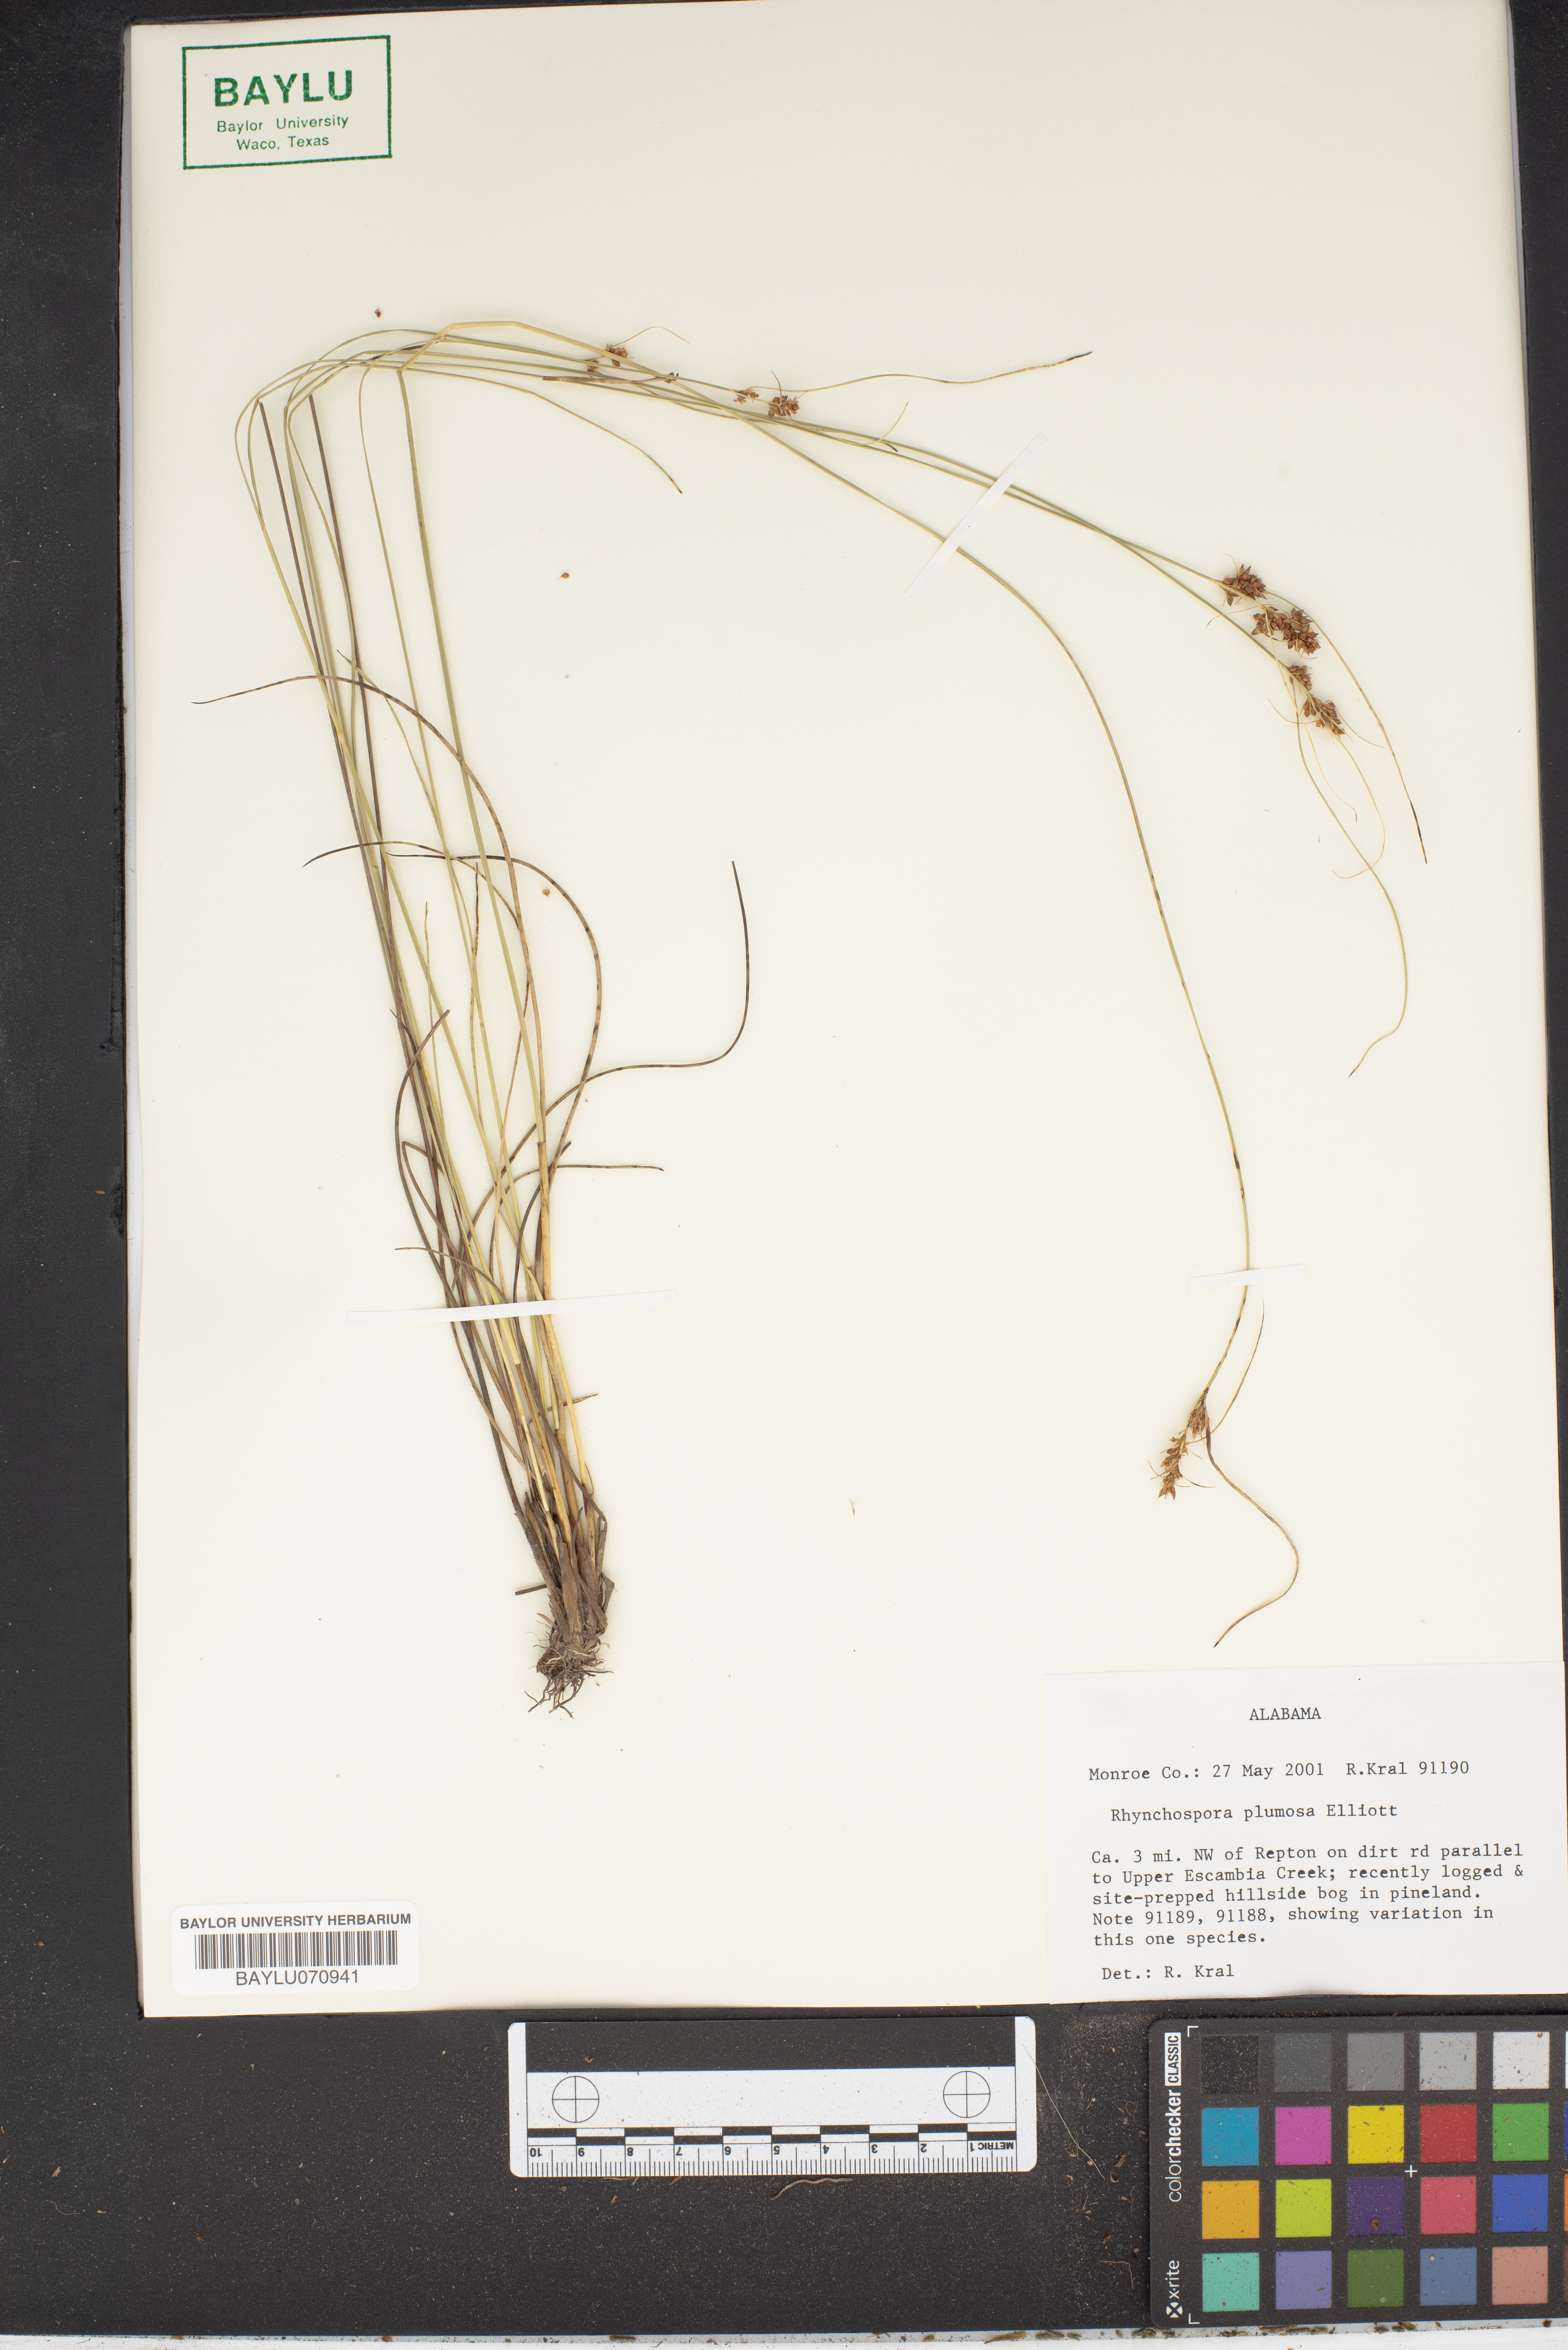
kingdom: Plantae
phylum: Tracheophyta
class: Liliopsida
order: Poales
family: Cyperaceae
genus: Rhynchospora
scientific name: Rhynchospora plumosa
